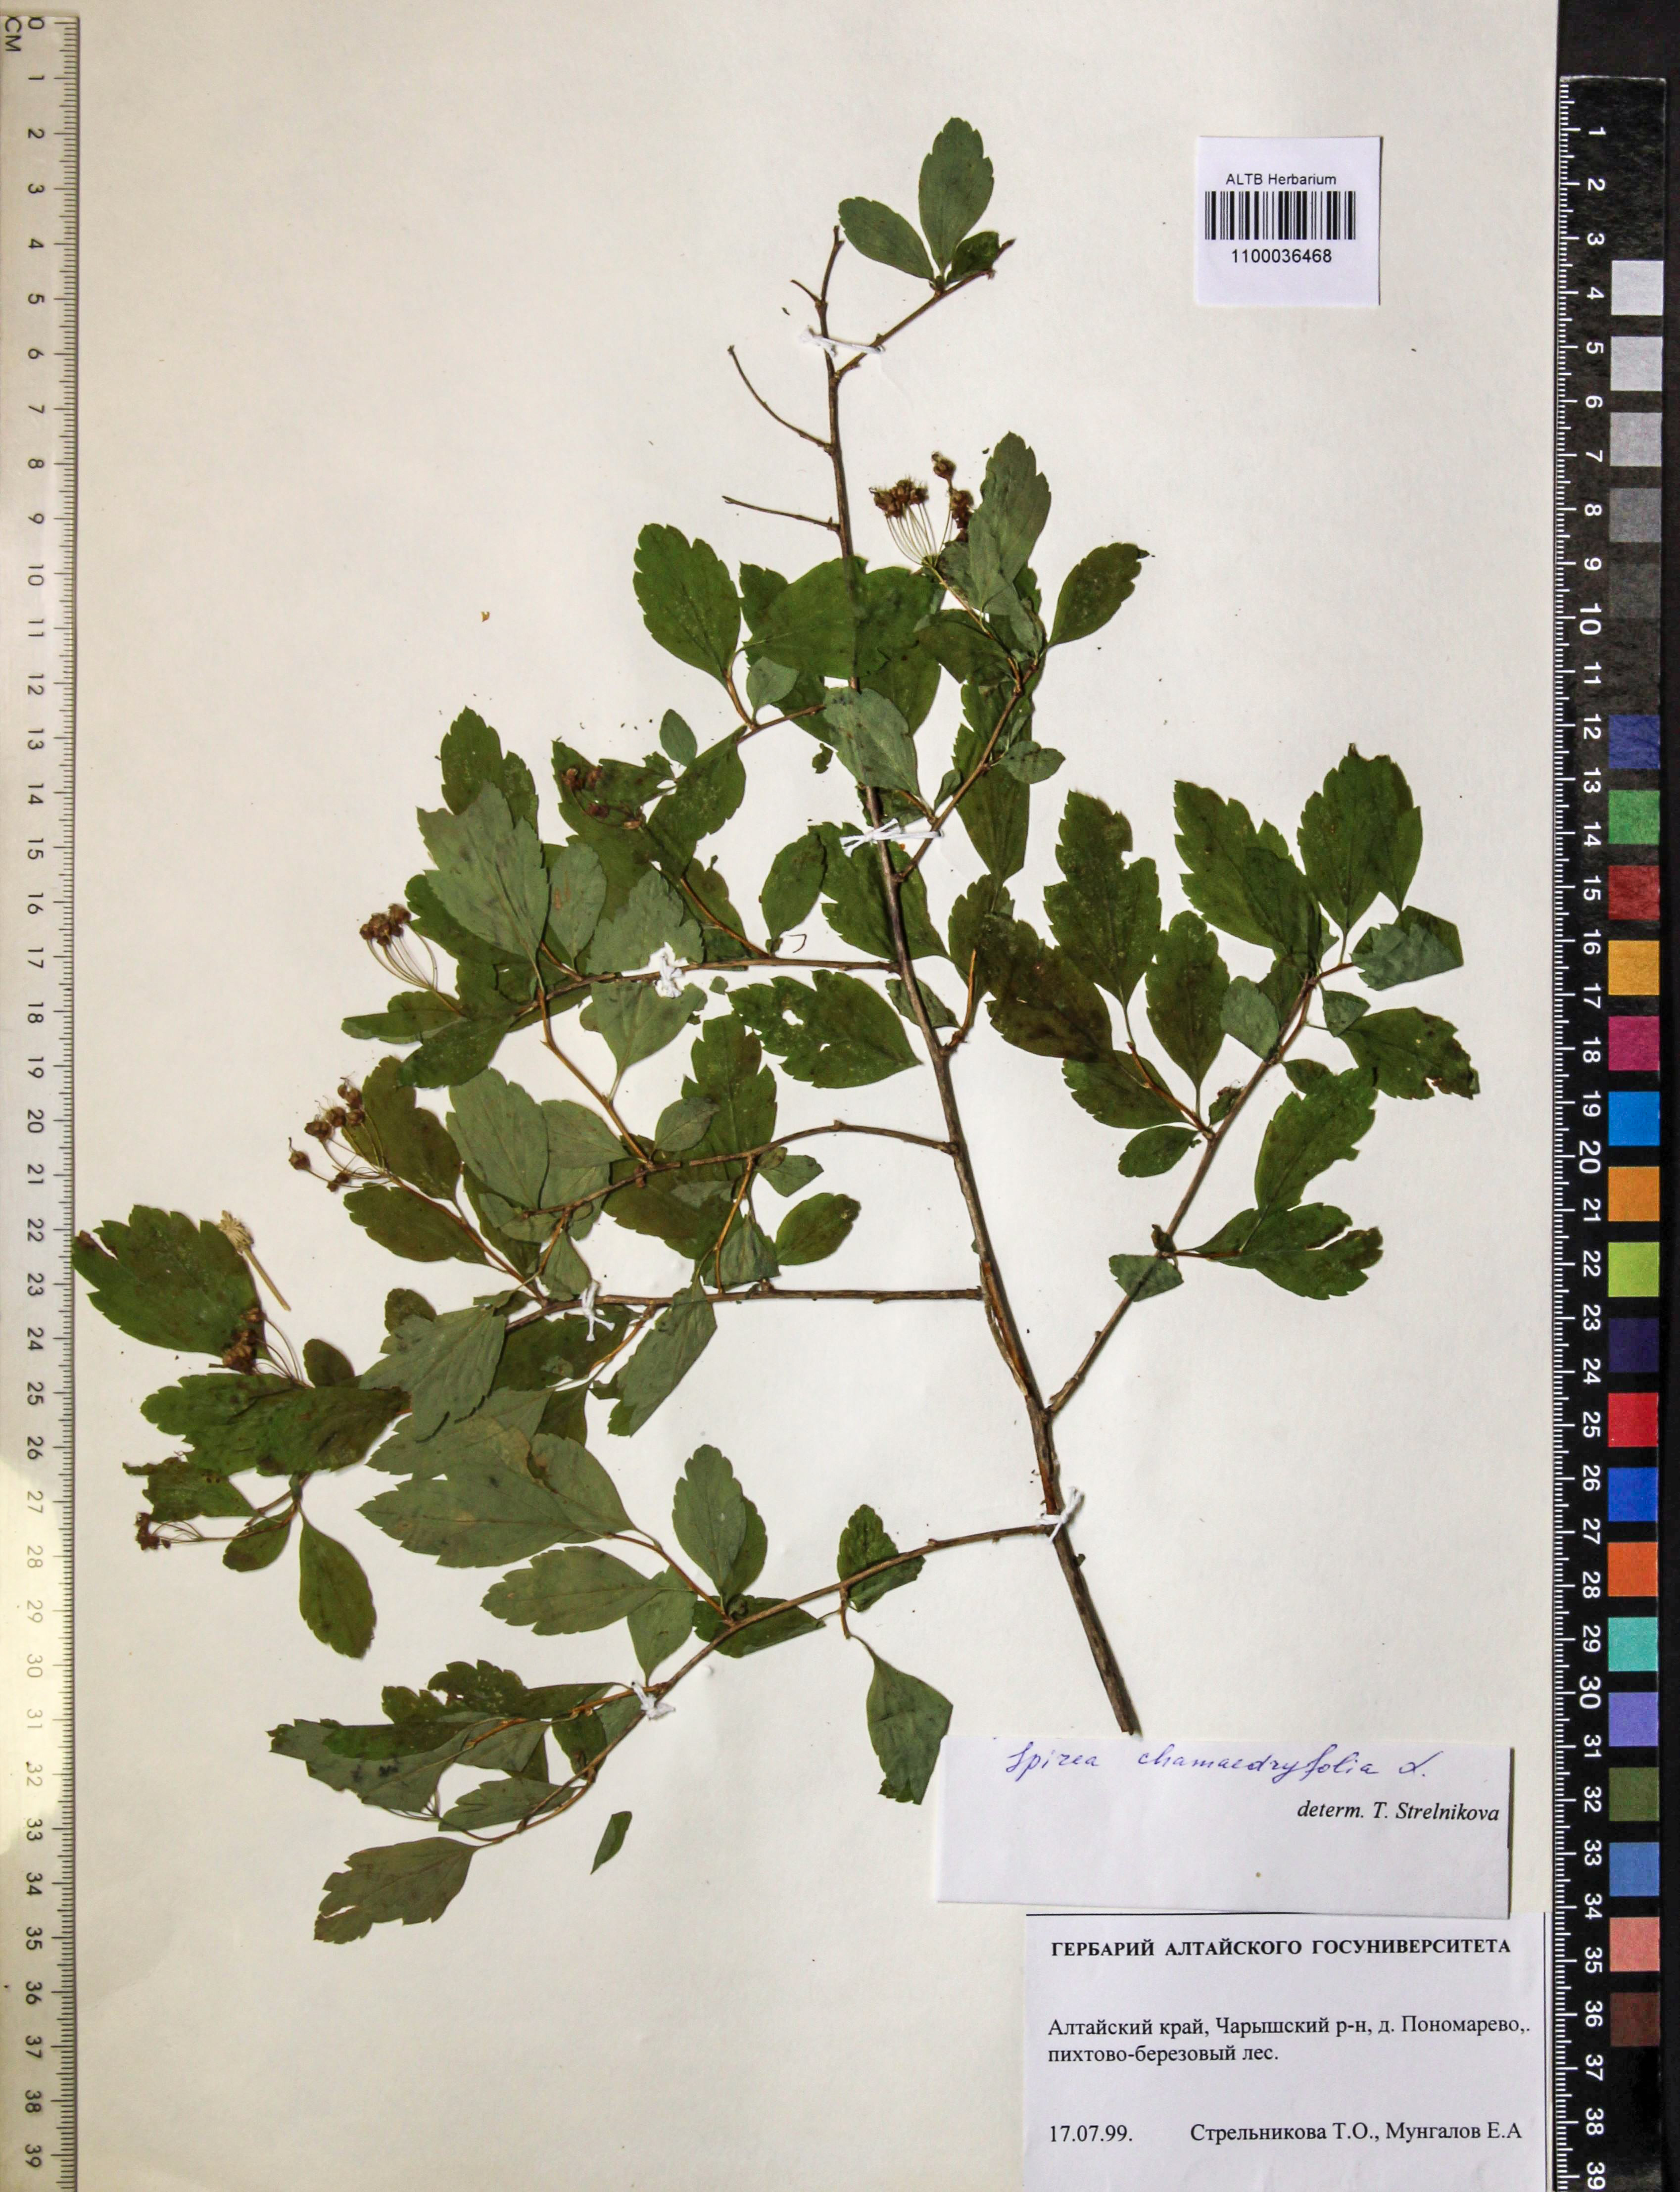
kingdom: Plantae
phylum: Tracheophyta
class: Magnoliopsida
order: Rosales
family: Rosaceae
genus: Spiraea
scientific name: Spiraea chamaedryfolia
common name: Elm-leaved spiraea
